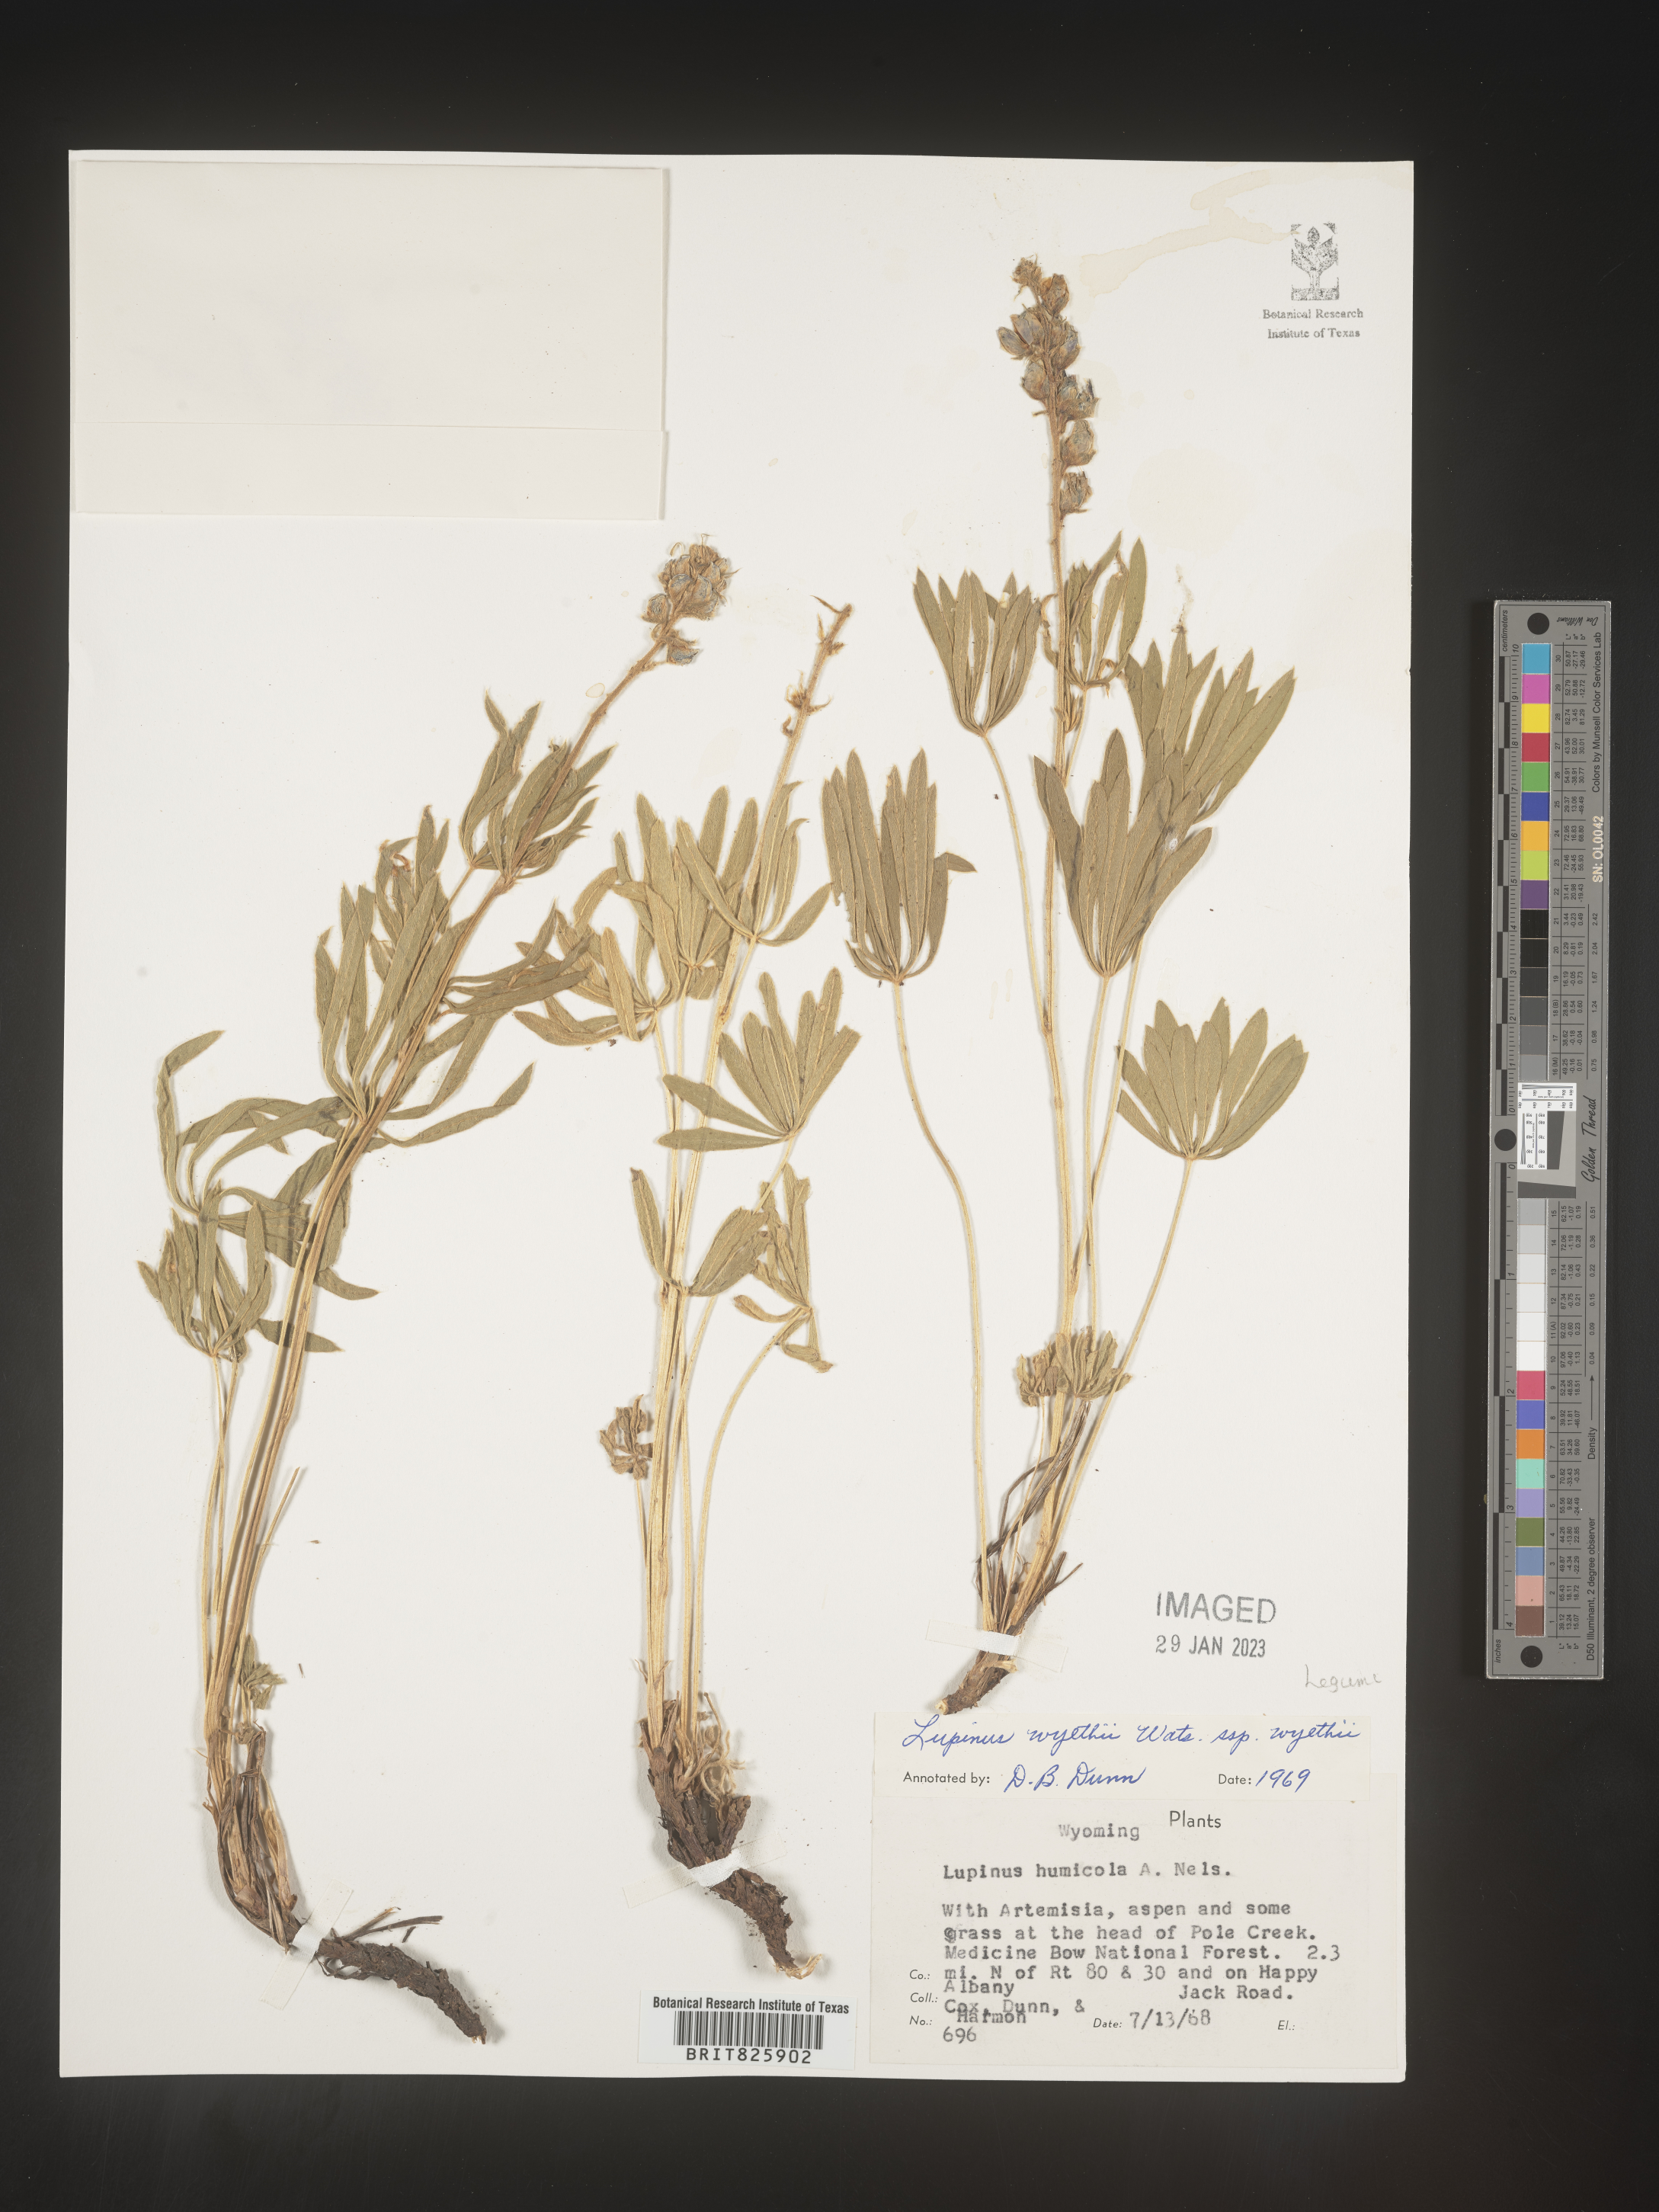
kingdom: Plantae
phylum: Tracheophyta
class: Magnoliopsida
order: Fabales
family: Fabaceae
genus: Lupinus
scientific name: Lupinus
